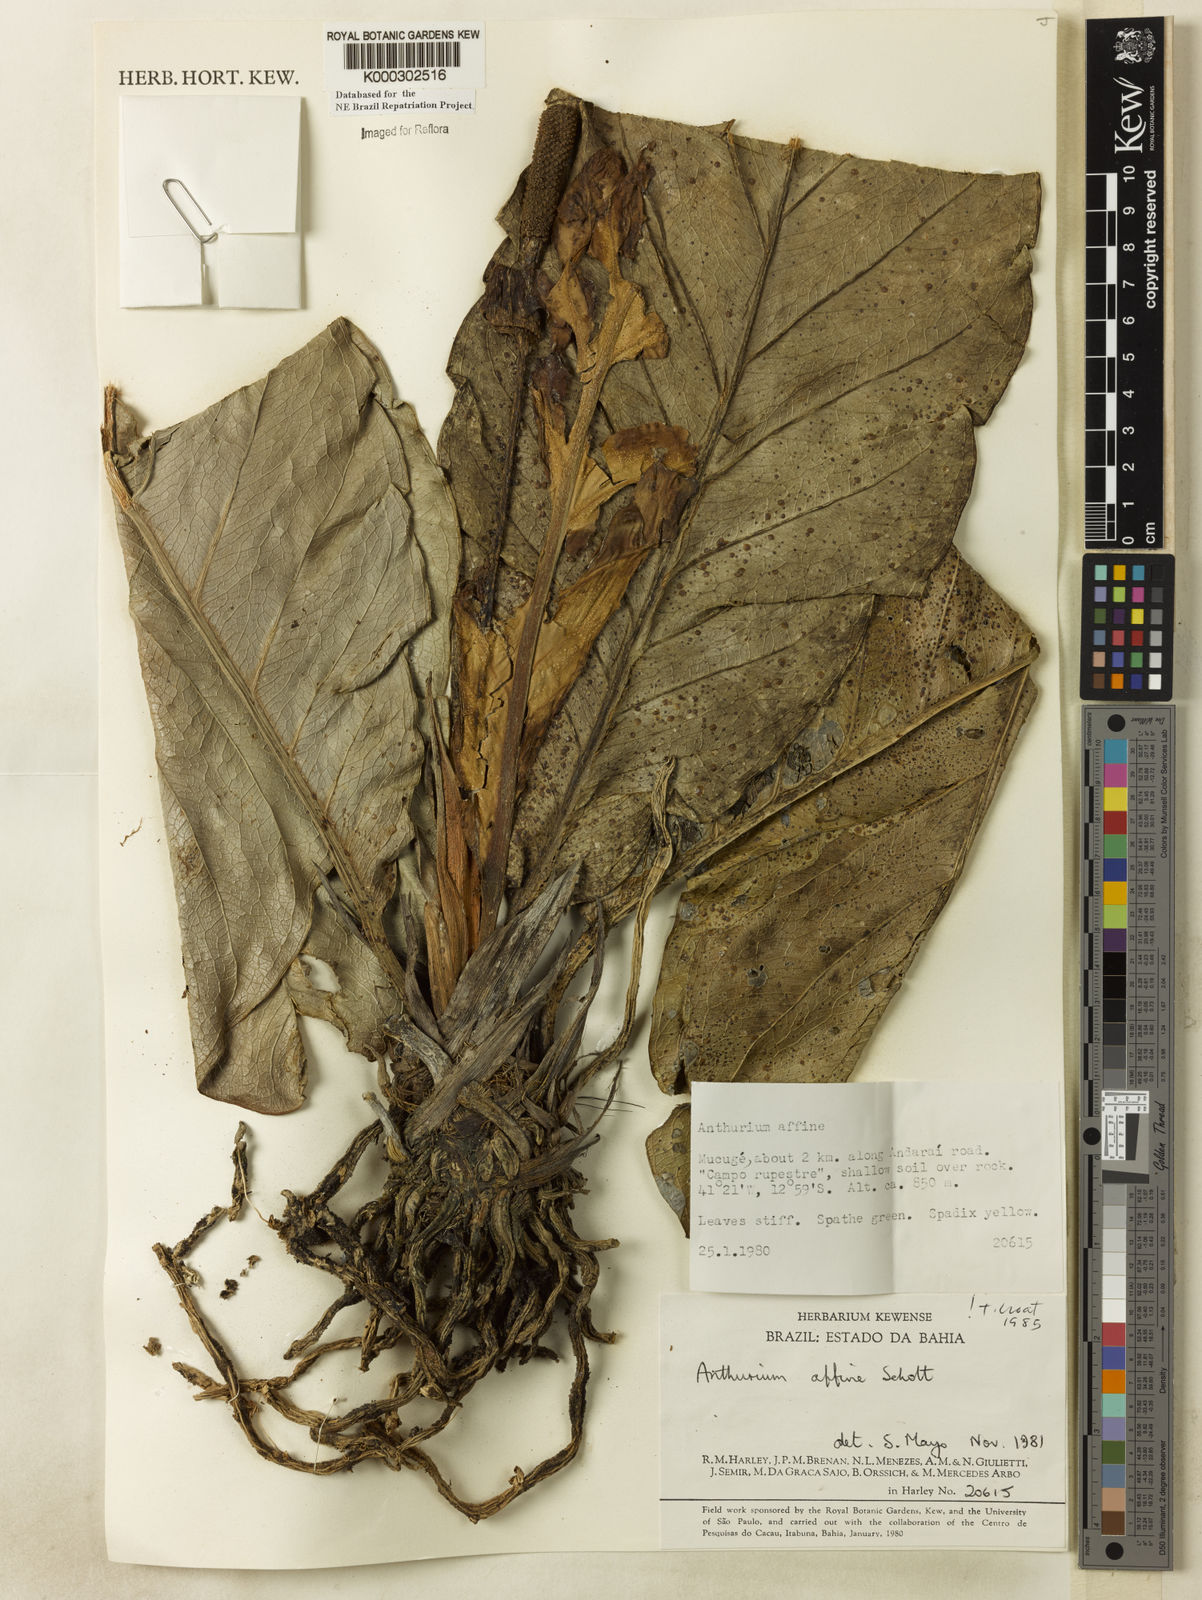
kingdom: Plantae
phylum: Tracheophyta
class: Liliopsida
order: Alismatales
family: Araceae
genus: Anthurium
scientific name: Anthurium affine
